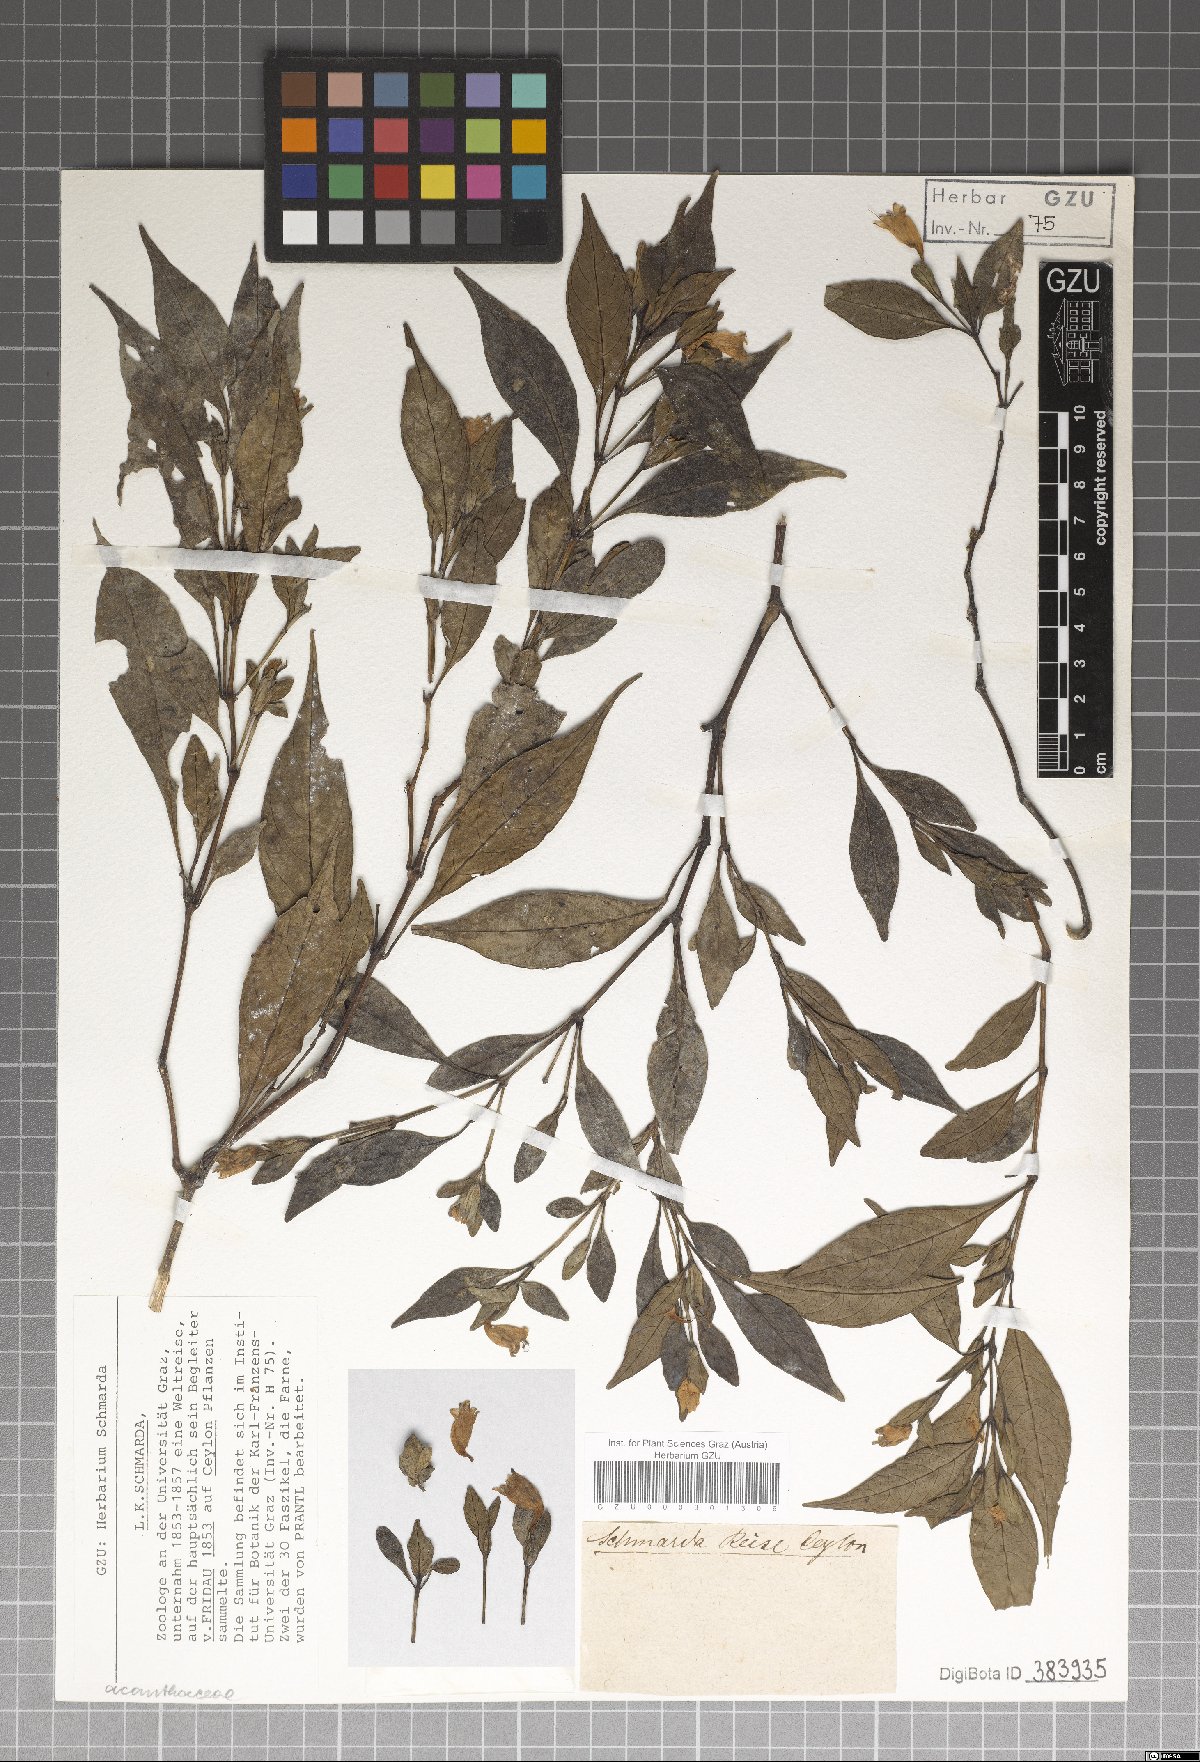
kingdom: Plantae
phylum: Tracheophyta
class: Magnoliopsida
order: Lamiales
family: Acanthaceae
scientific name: Acanthaceae
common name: Acanthaceae
